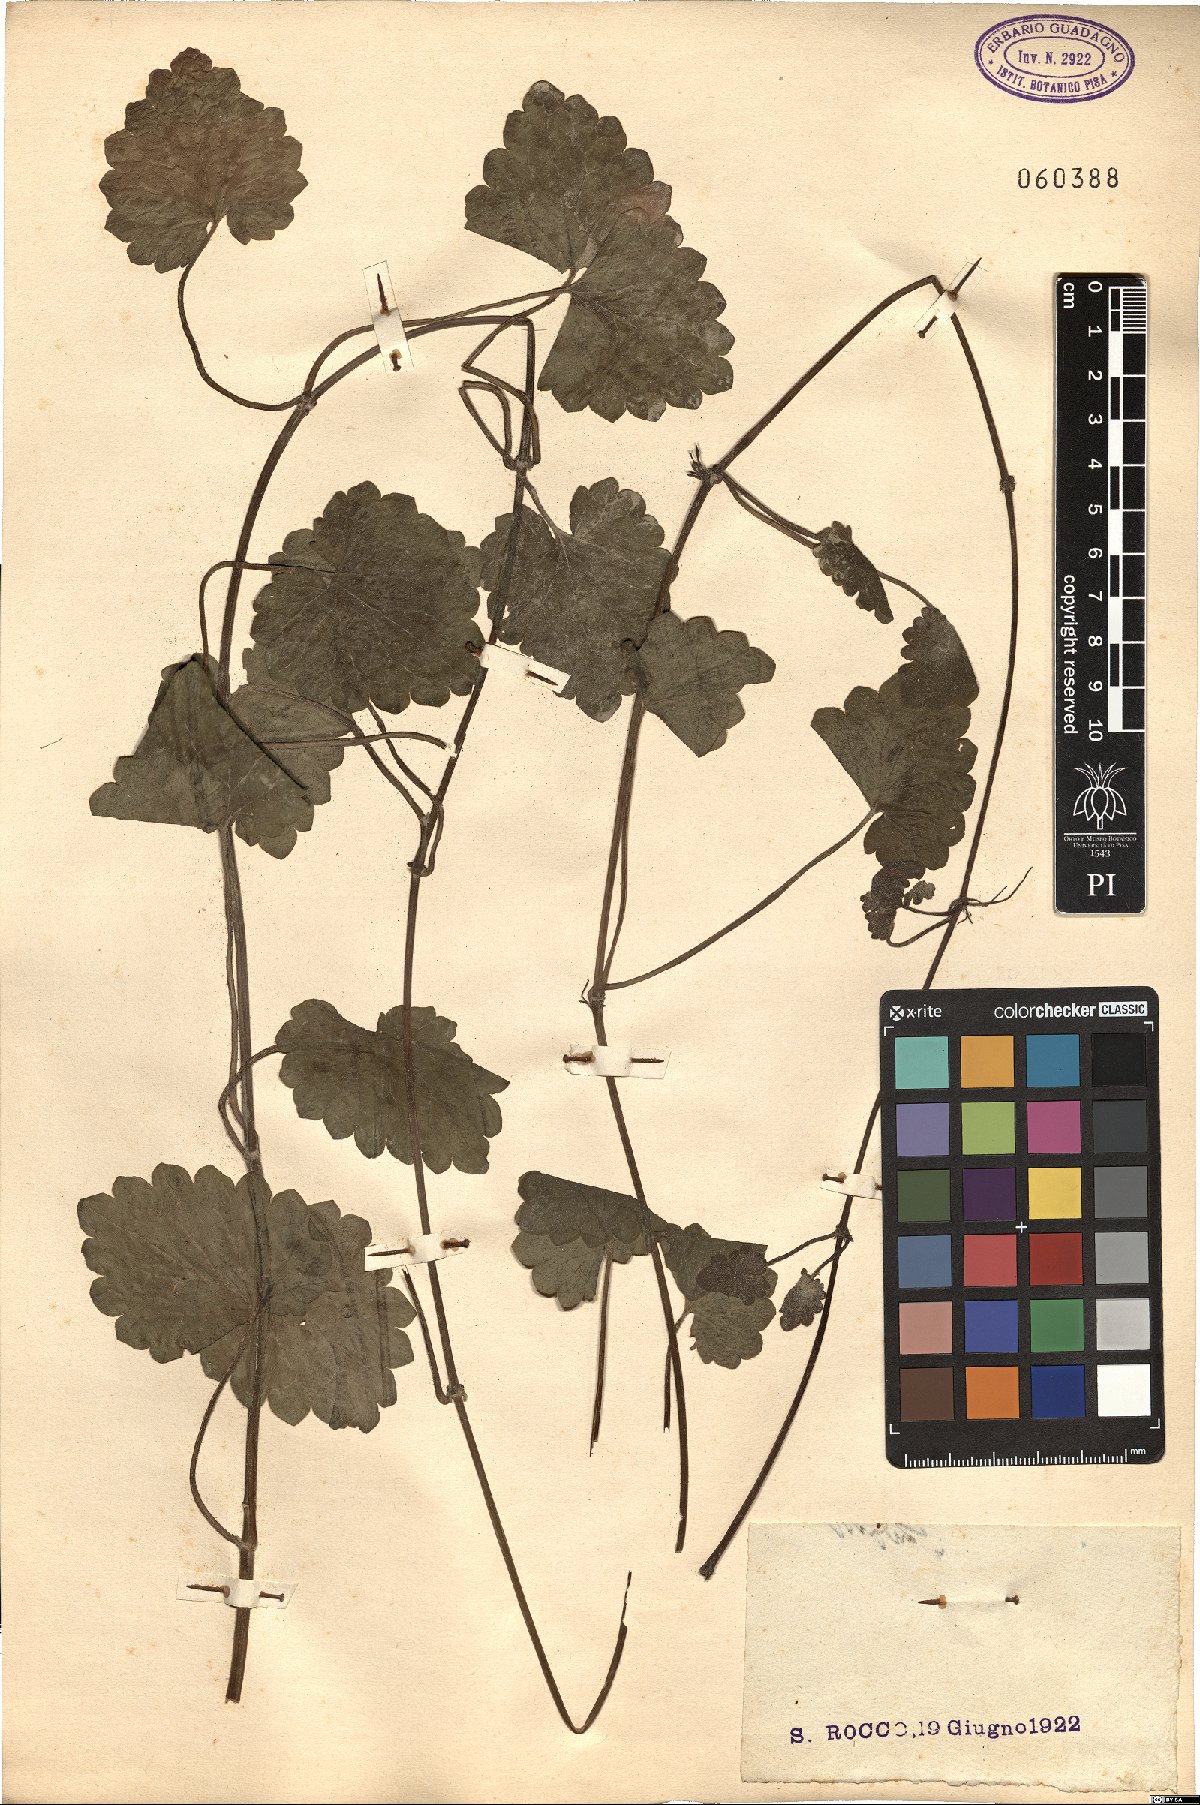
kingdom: Plantae
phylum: Tracheophyta
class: Magnoliopsida
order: Ranunculales
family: Ranunculaceae
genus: Ranunculus
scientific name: Ranunculus
